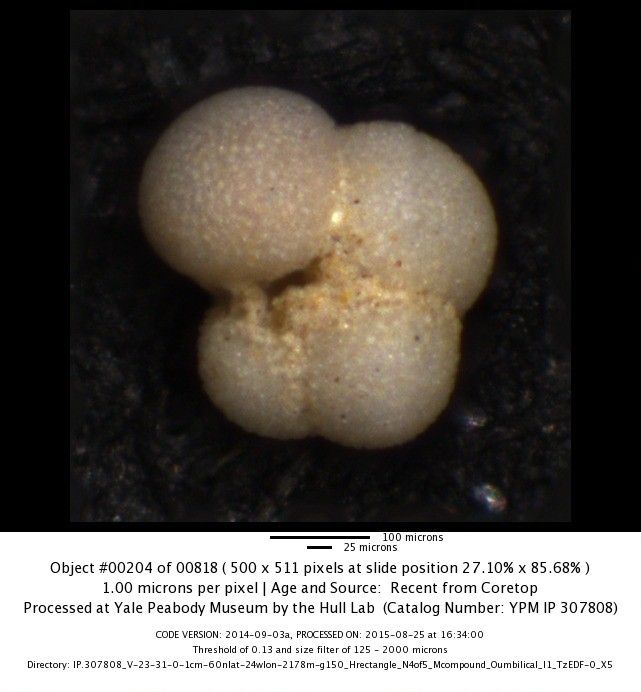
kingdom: Chromista
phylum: Foraminifera
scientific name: Foraminifera
